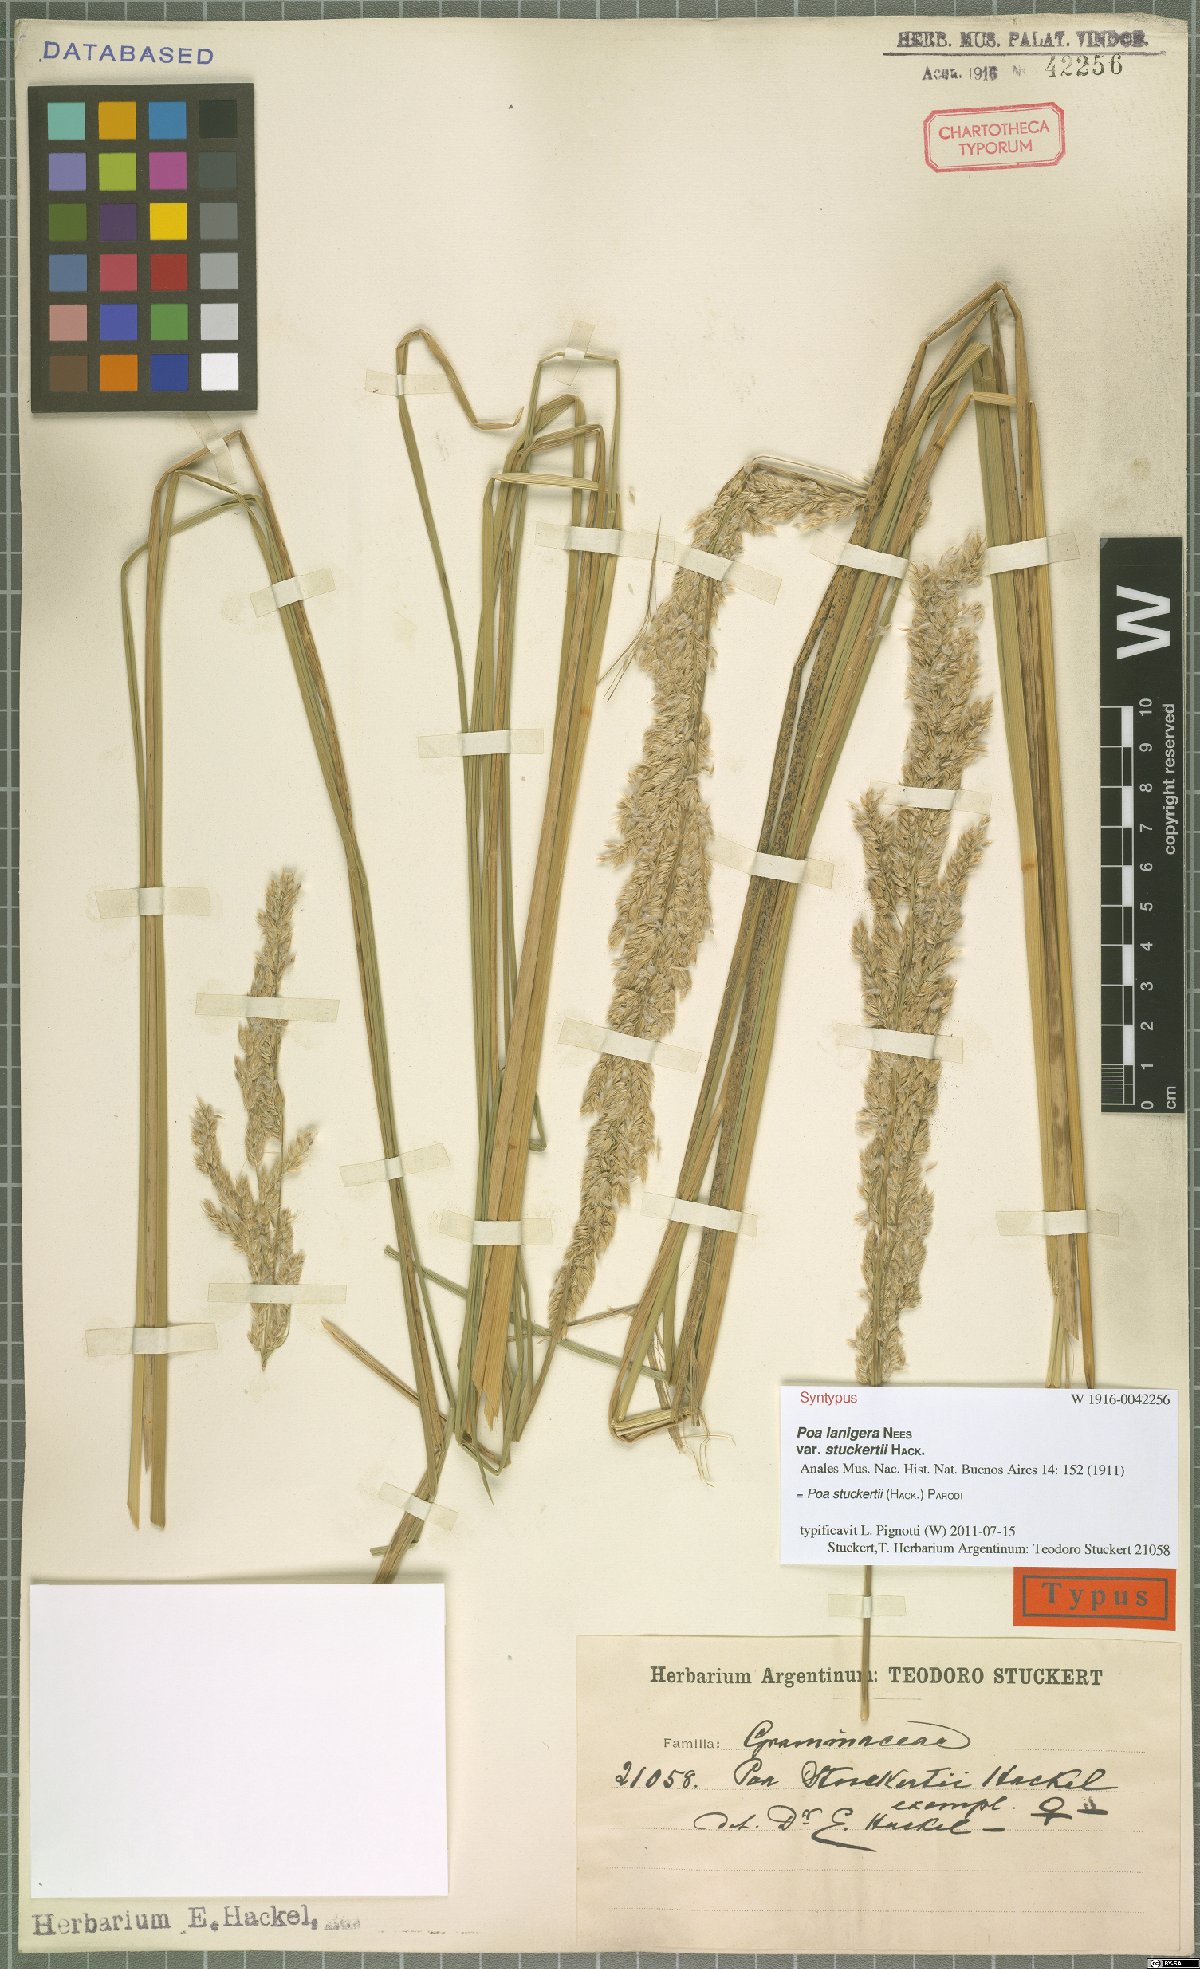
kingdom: Plantae
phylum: Tracheophyta
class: Liliopsida
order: Poales
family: Poaceae
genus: Poa
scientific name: Poa stuckertii
